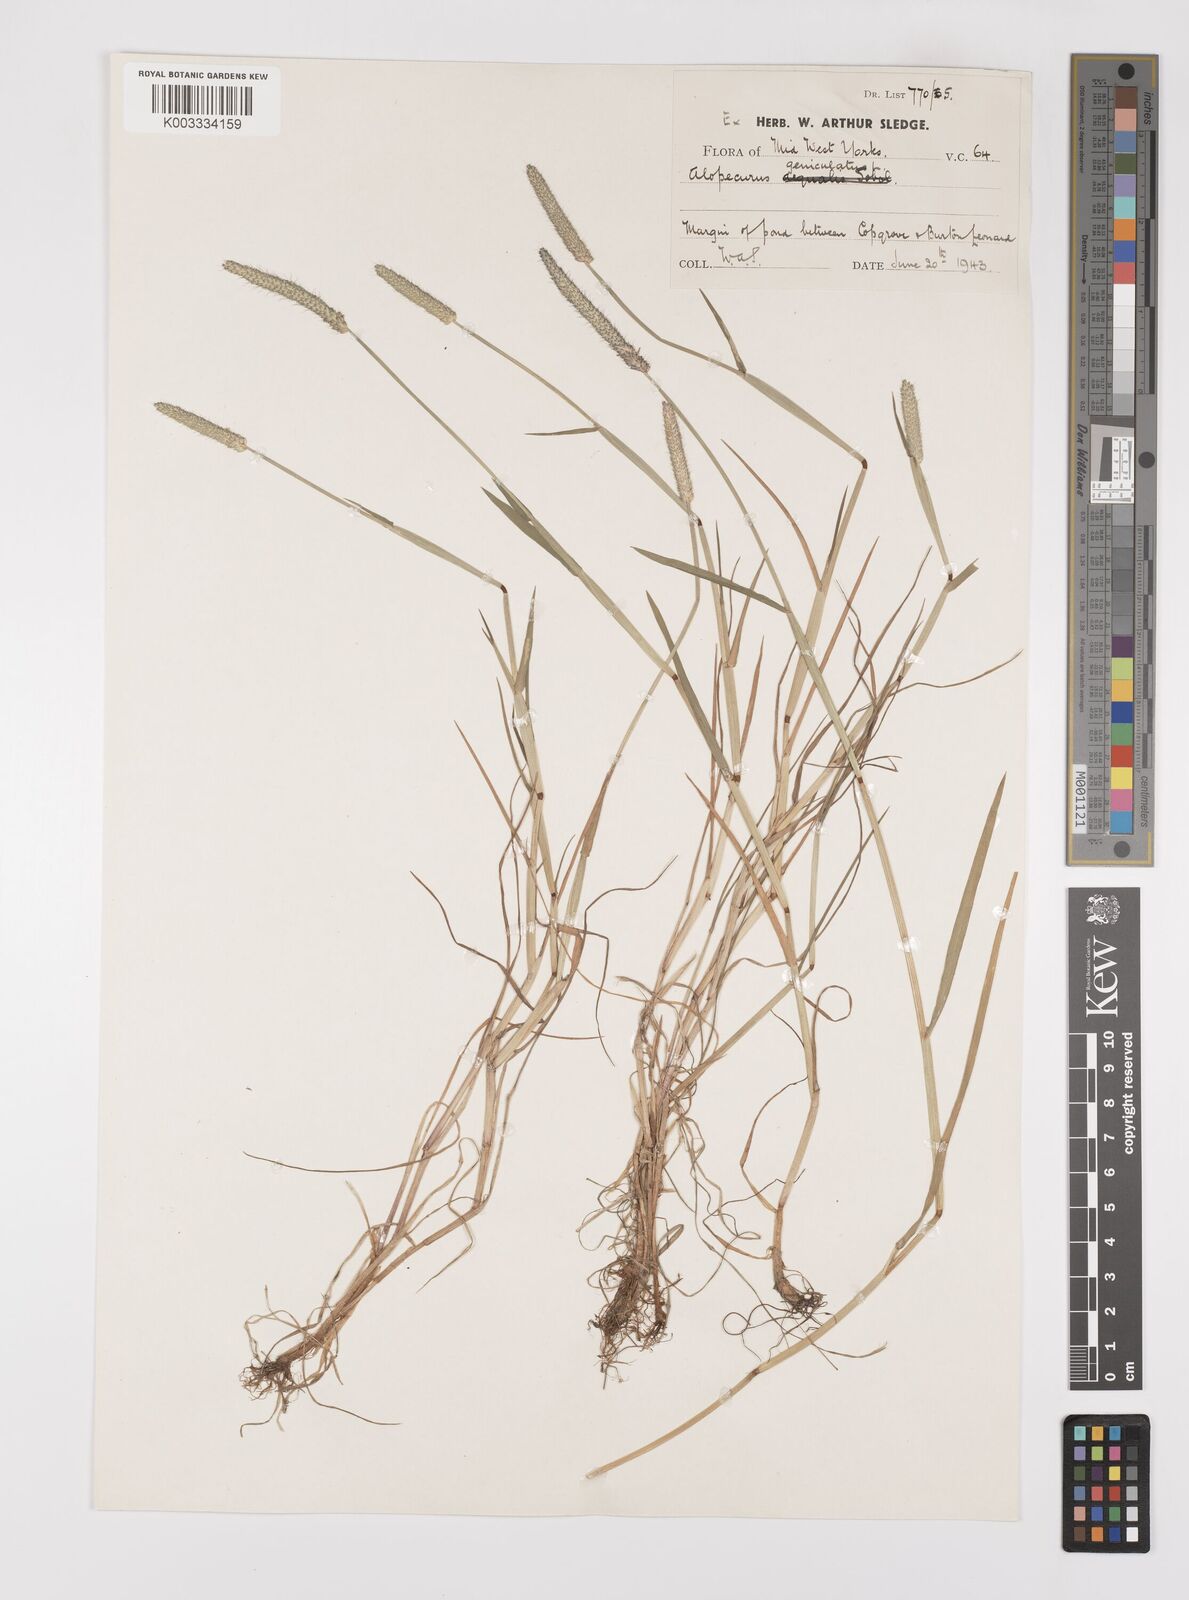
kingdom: Plantae
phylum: Tracheophyta
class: Liliopsida
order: Poales
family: Poaceae
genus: Alopecurus
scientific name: Alopecurus geniculatus
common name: Water foxtail
